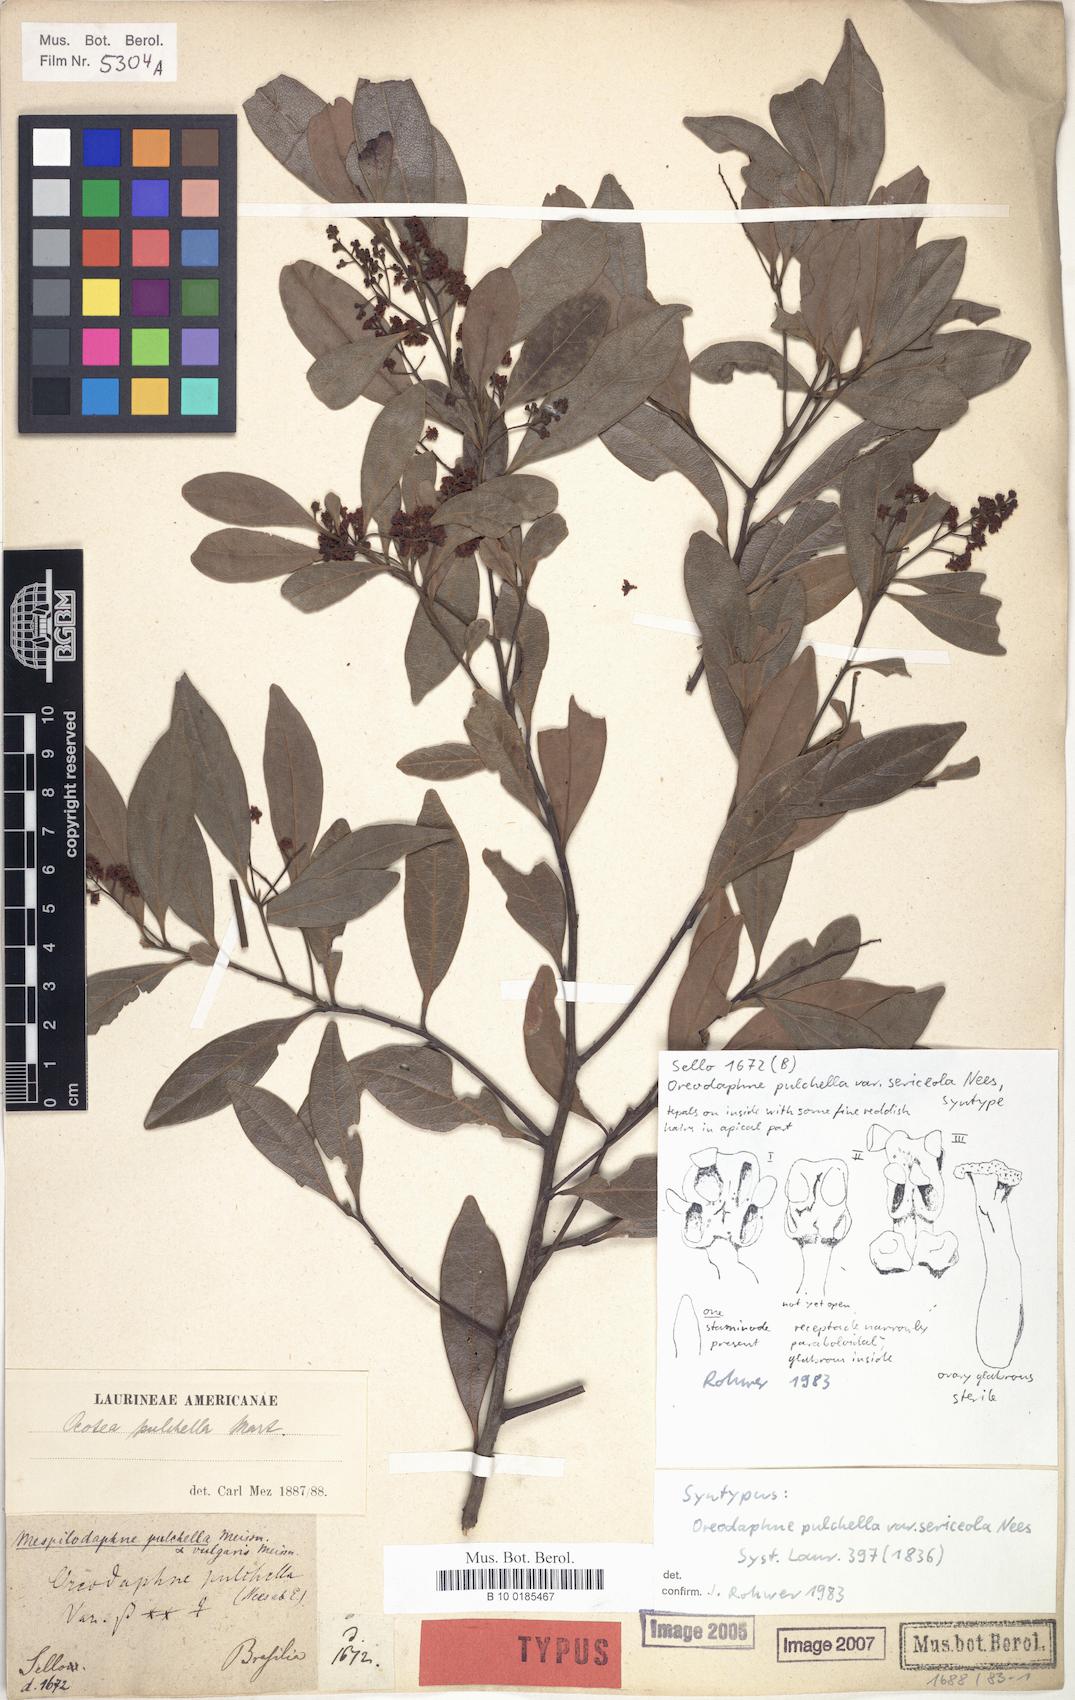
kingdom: Plantae
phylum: Tracheophyta
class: Magnoliopsida
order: Laurales
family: Lauraceae
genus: Mespilodaphne
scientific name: Mespilodaphne pulchella
